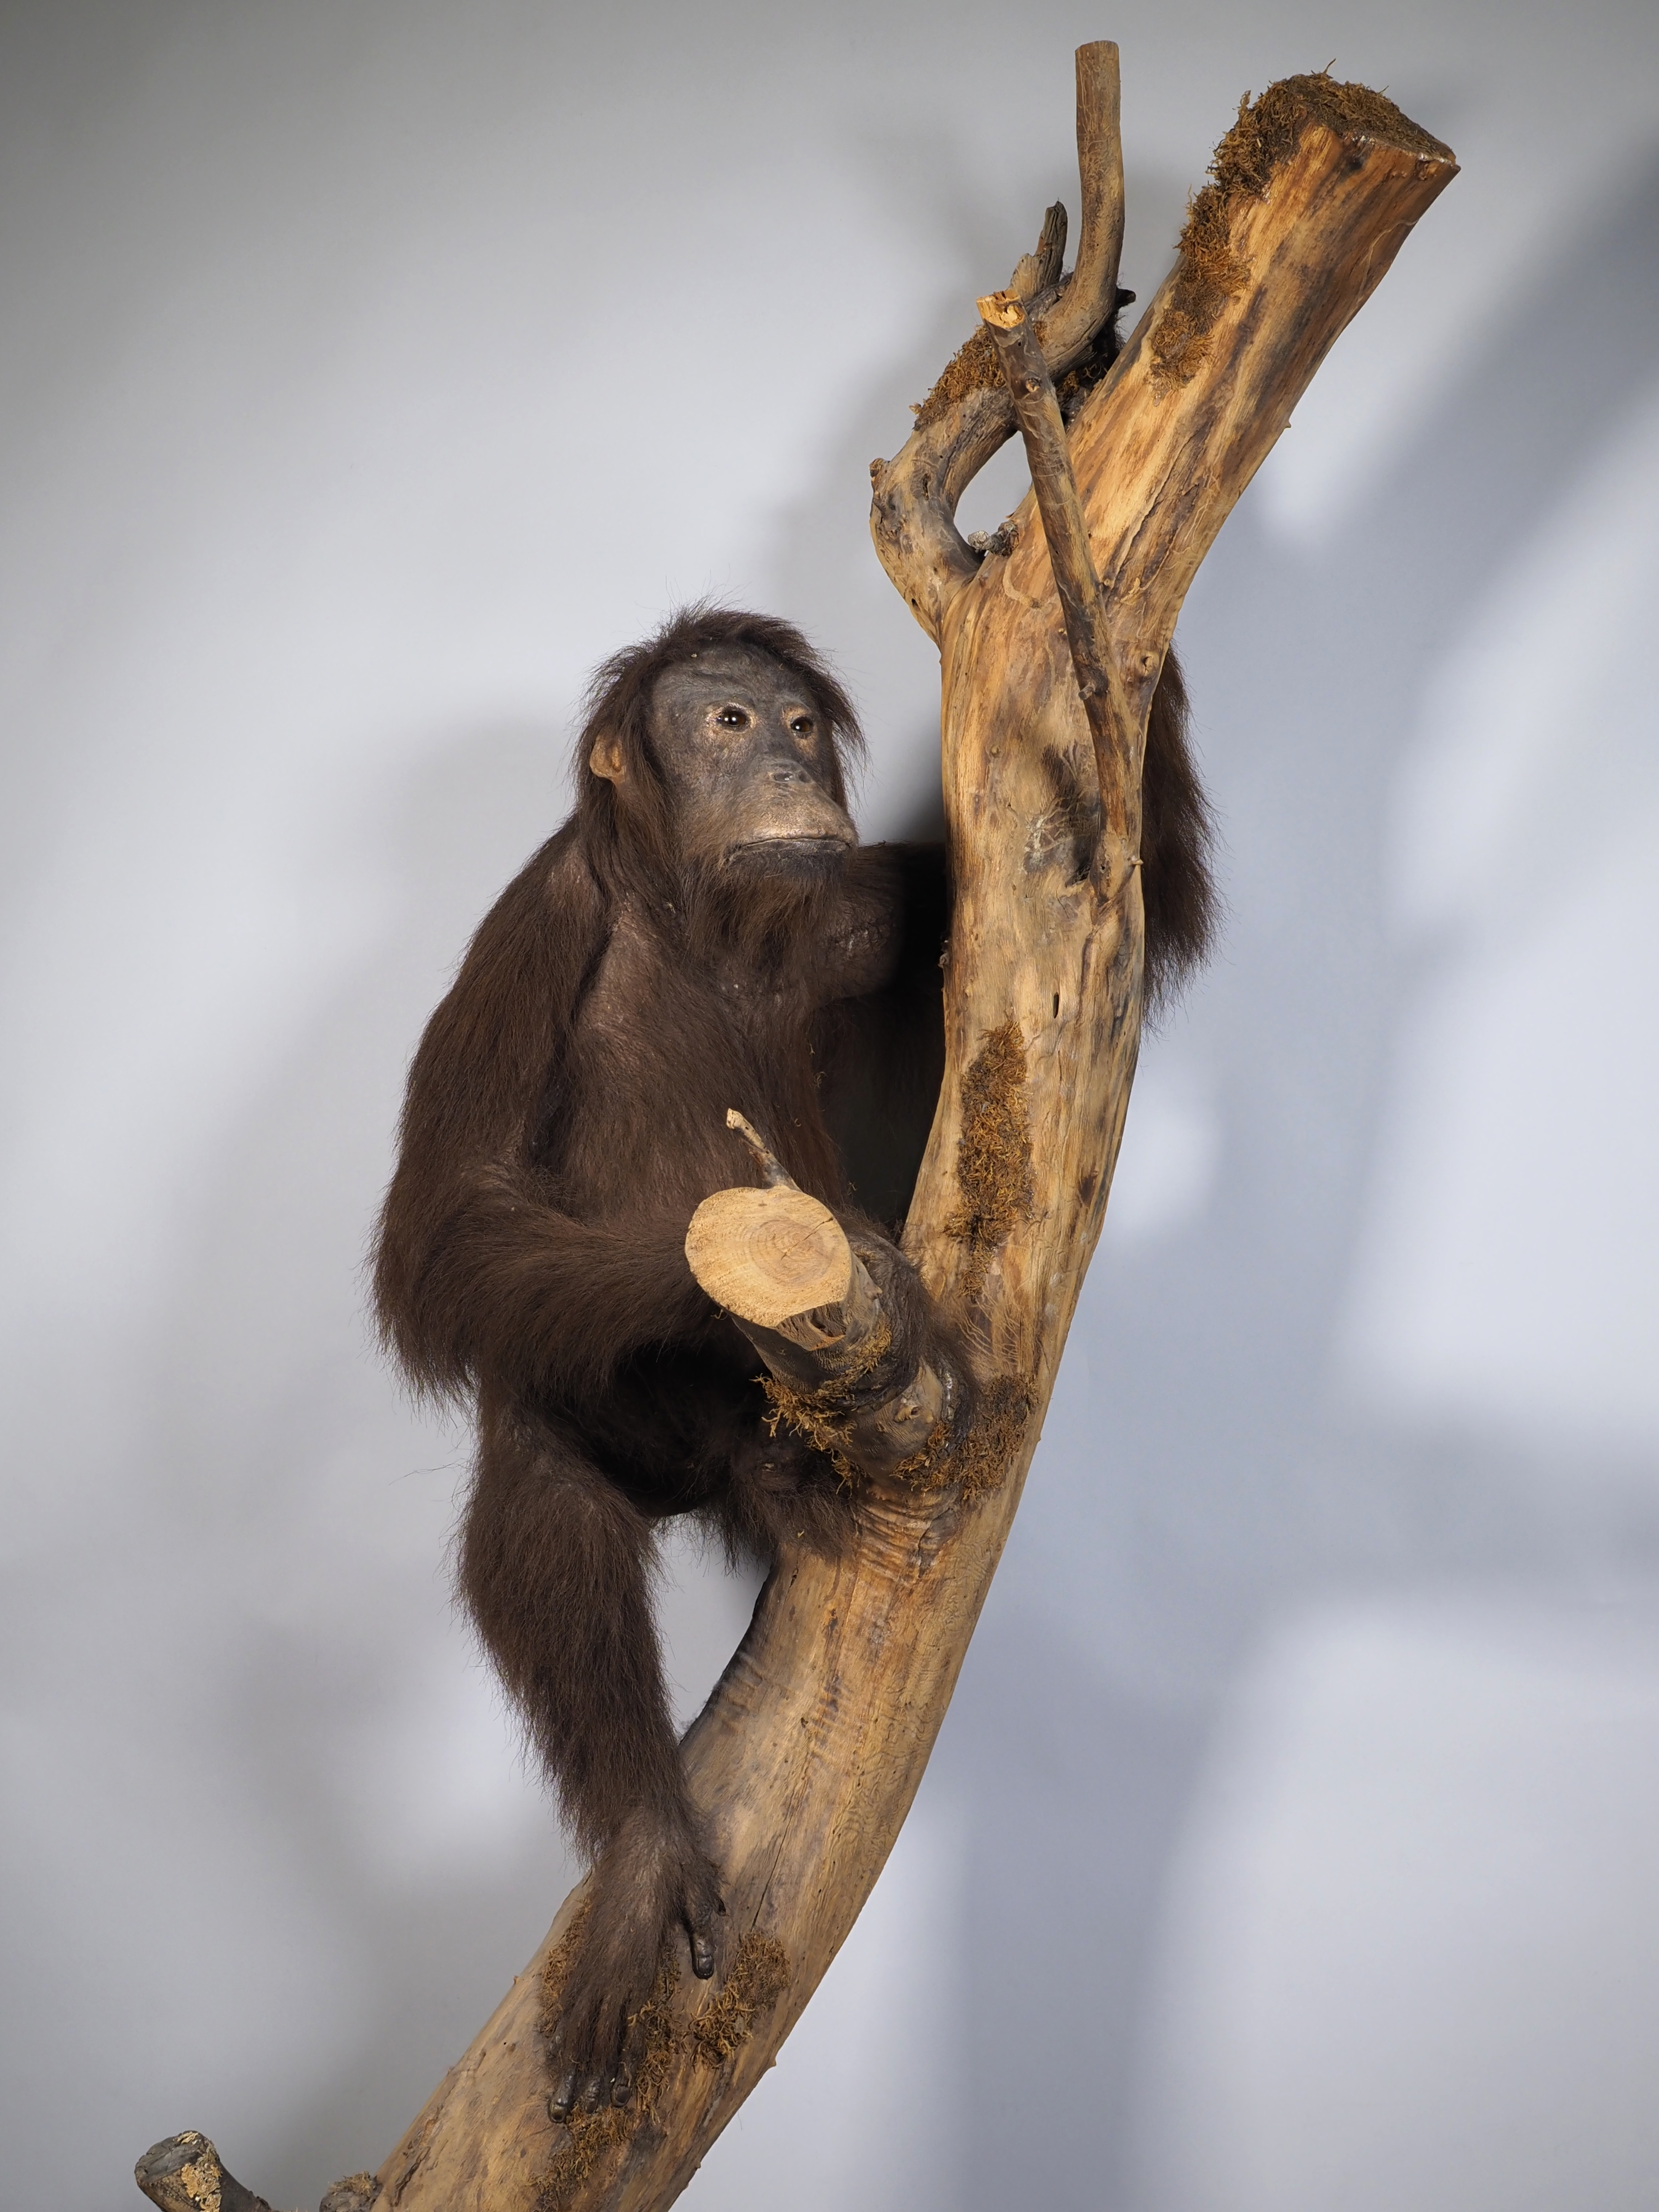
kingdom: Animalia
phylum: Chordata
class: Mammalia
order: Primates
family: Hominidae
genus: Pongo
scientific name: Pongo pygmaeus
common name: Bornean orangutan
